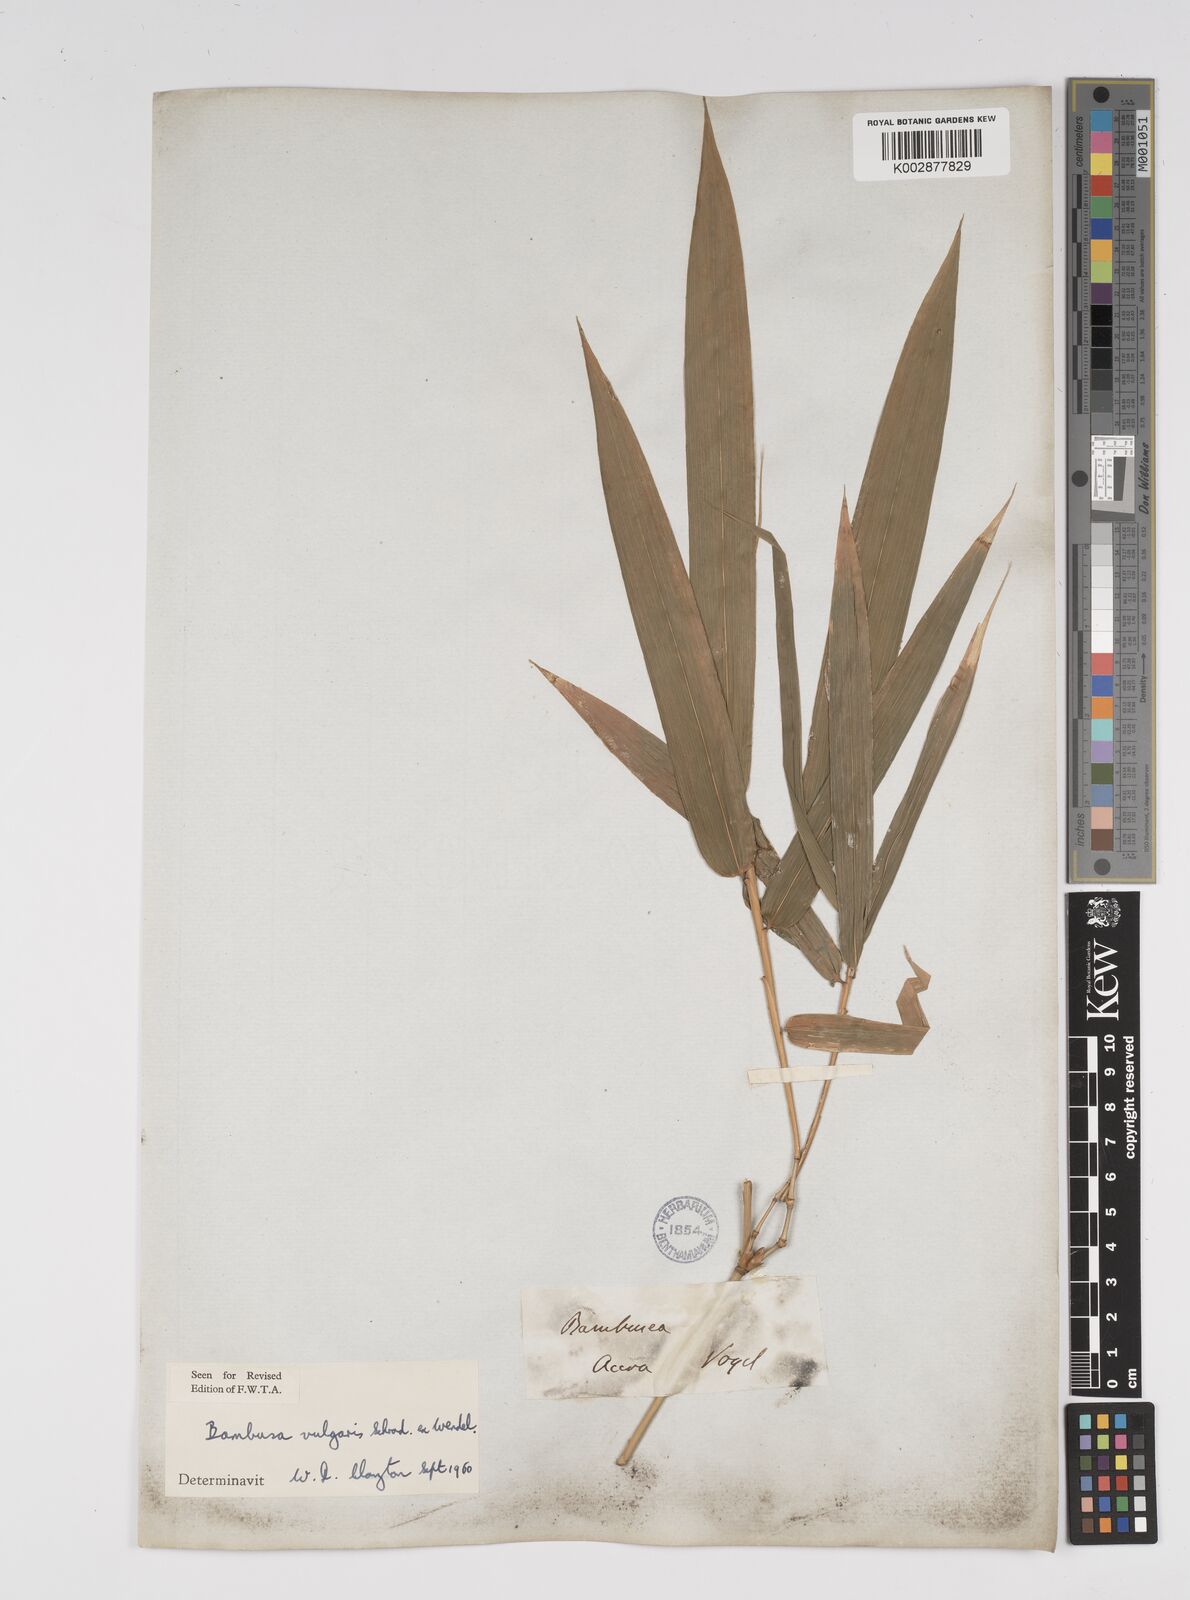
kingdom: Plantae
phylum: Tracheophyta
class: Liliopsida
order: Poales
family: Poaceae
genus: Bambusa
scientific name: Bambusa vulgaris
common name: Common bamboo
